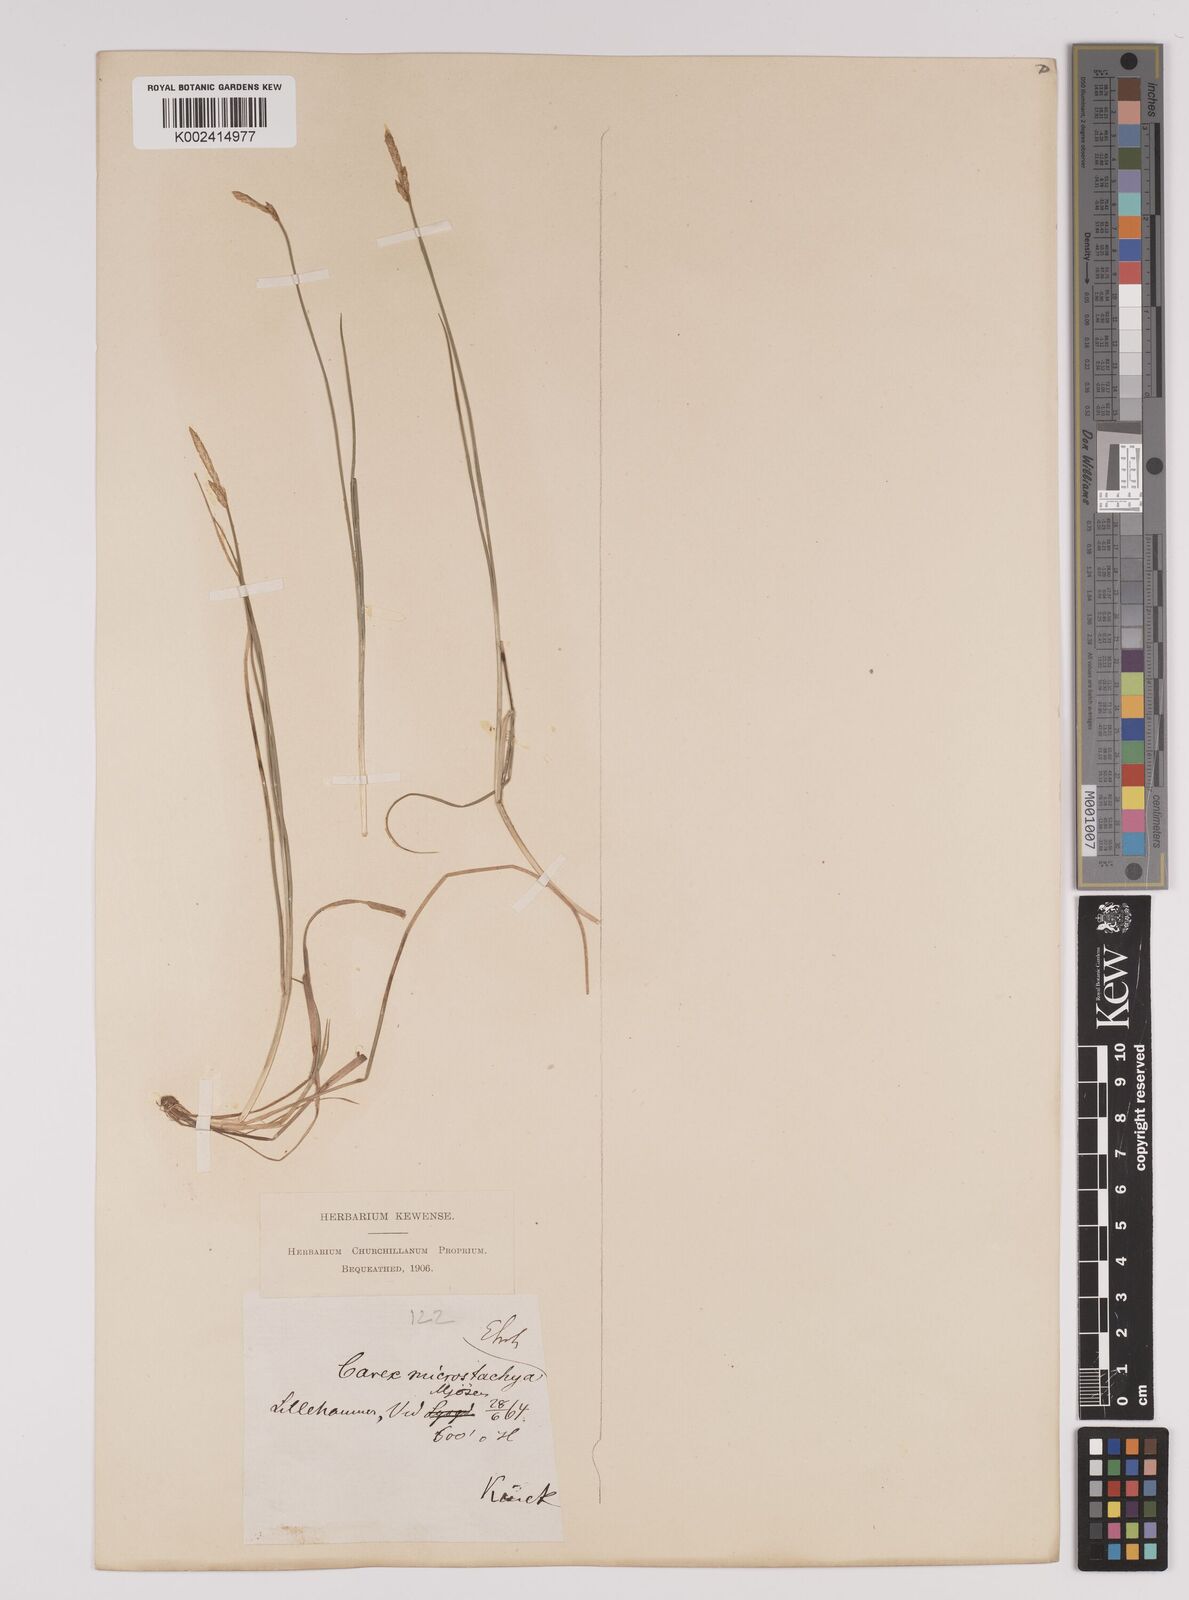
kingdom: Plantae
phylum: Tracheophyta
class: Liliopsida
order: Poales
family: Cyperaceae
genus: Carex
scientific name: Carex dioica
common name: Dioecious sedge
